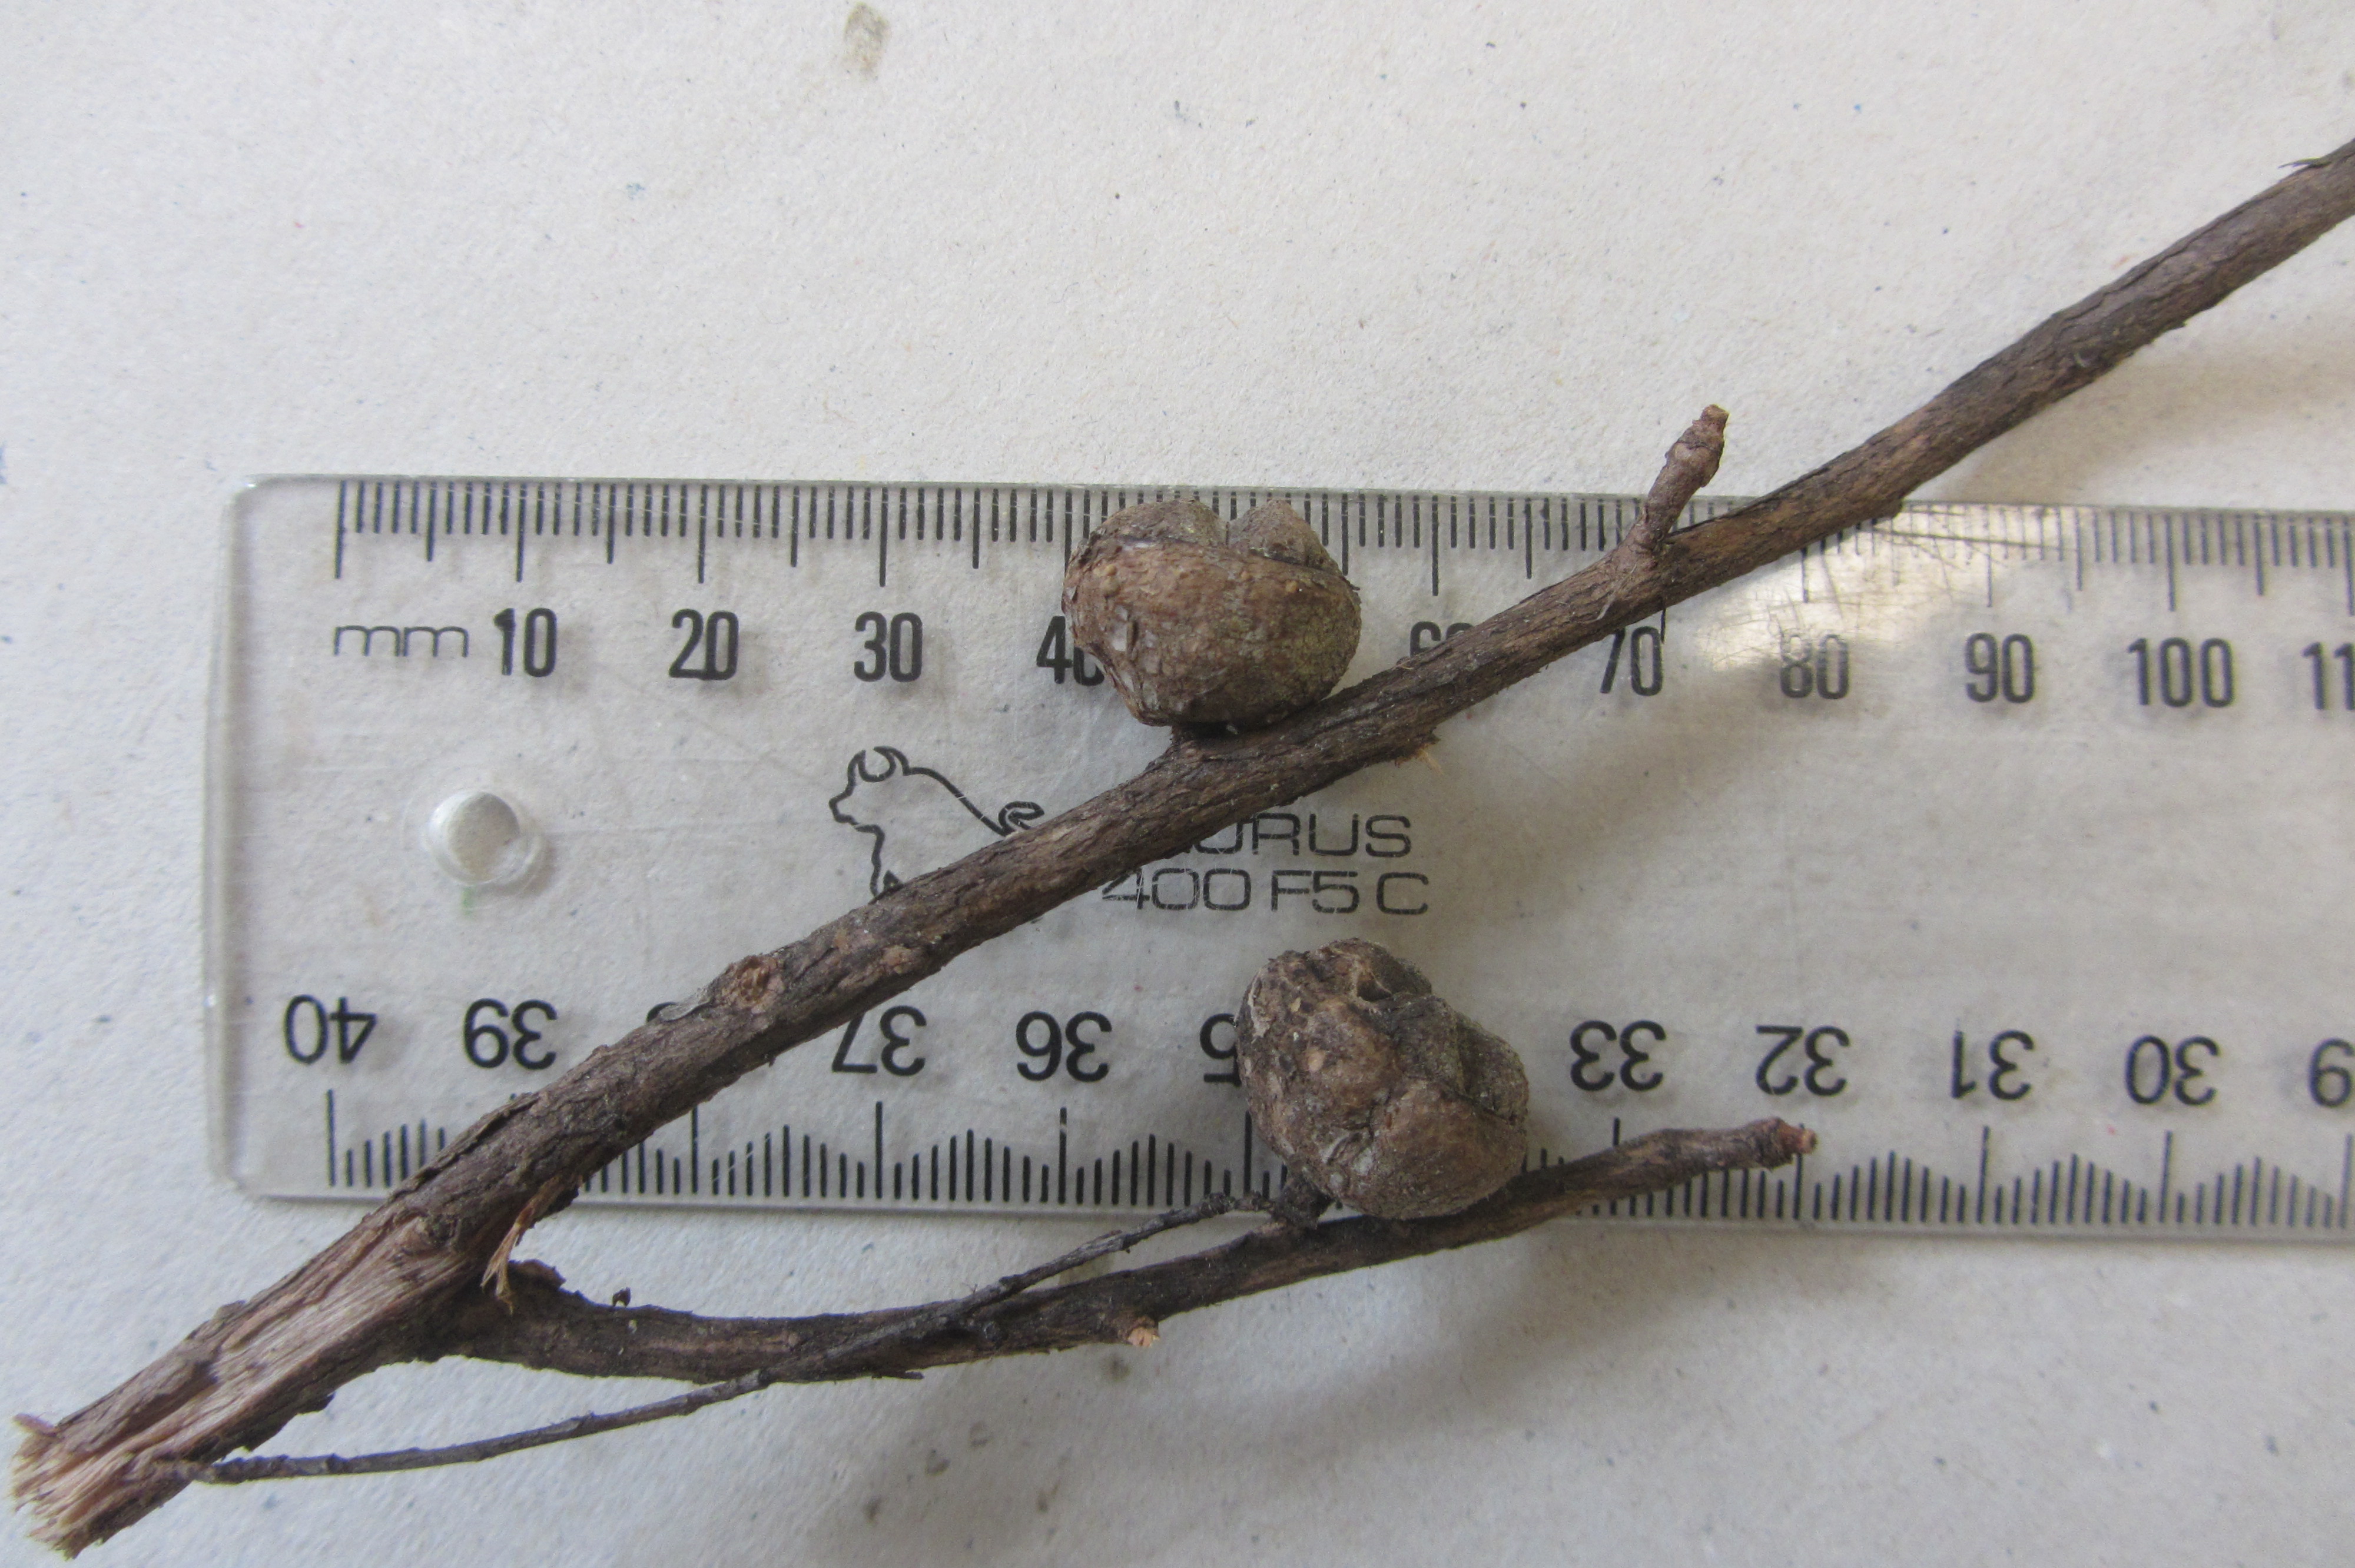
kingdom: Plantae
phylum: Tracheophyta
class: Magnoliopsida
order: Myrtales
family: Myrtaceae
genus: Leptospermum
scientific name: Leptospermum repo
